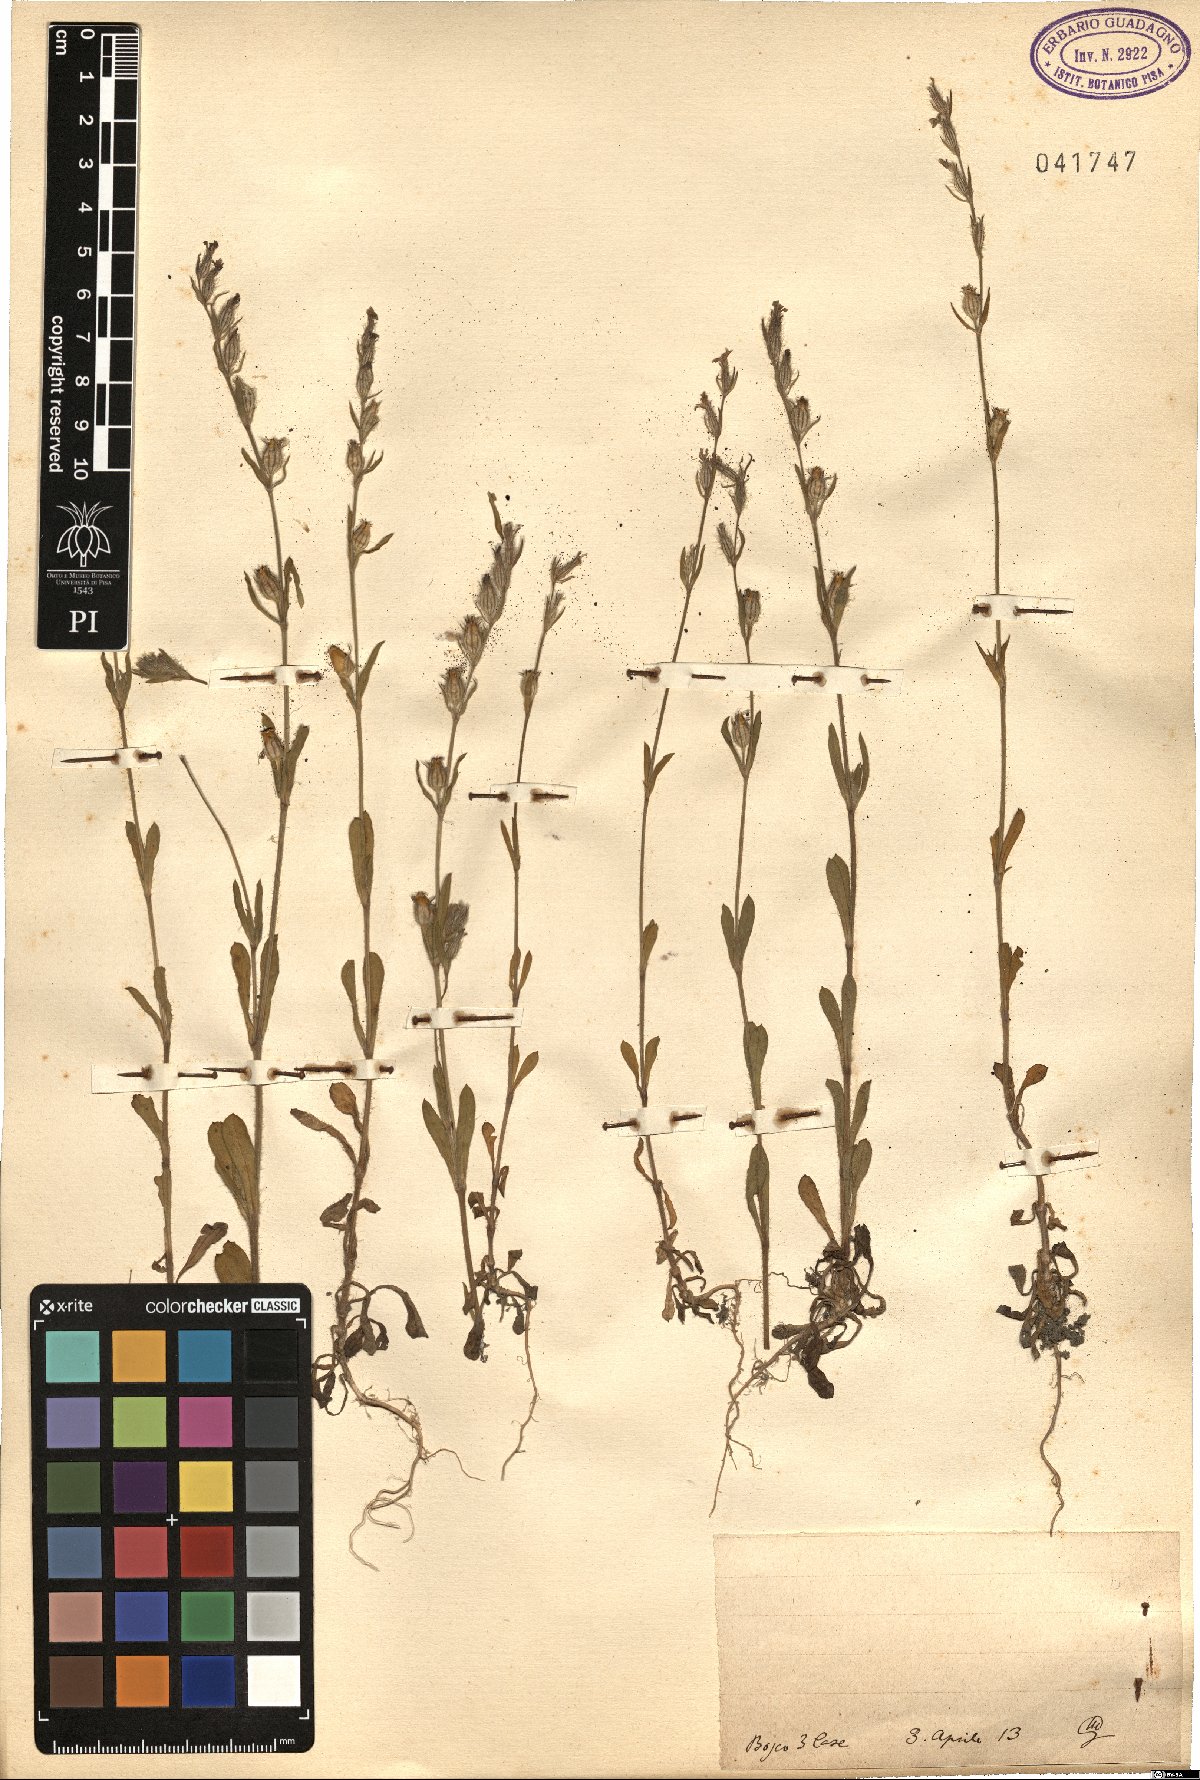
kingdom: Plantae
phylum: Tracheophyta
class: Magnoliopsida
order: Caryophyllales
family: Caryophyllaceae
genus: Silene
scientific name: Silene
